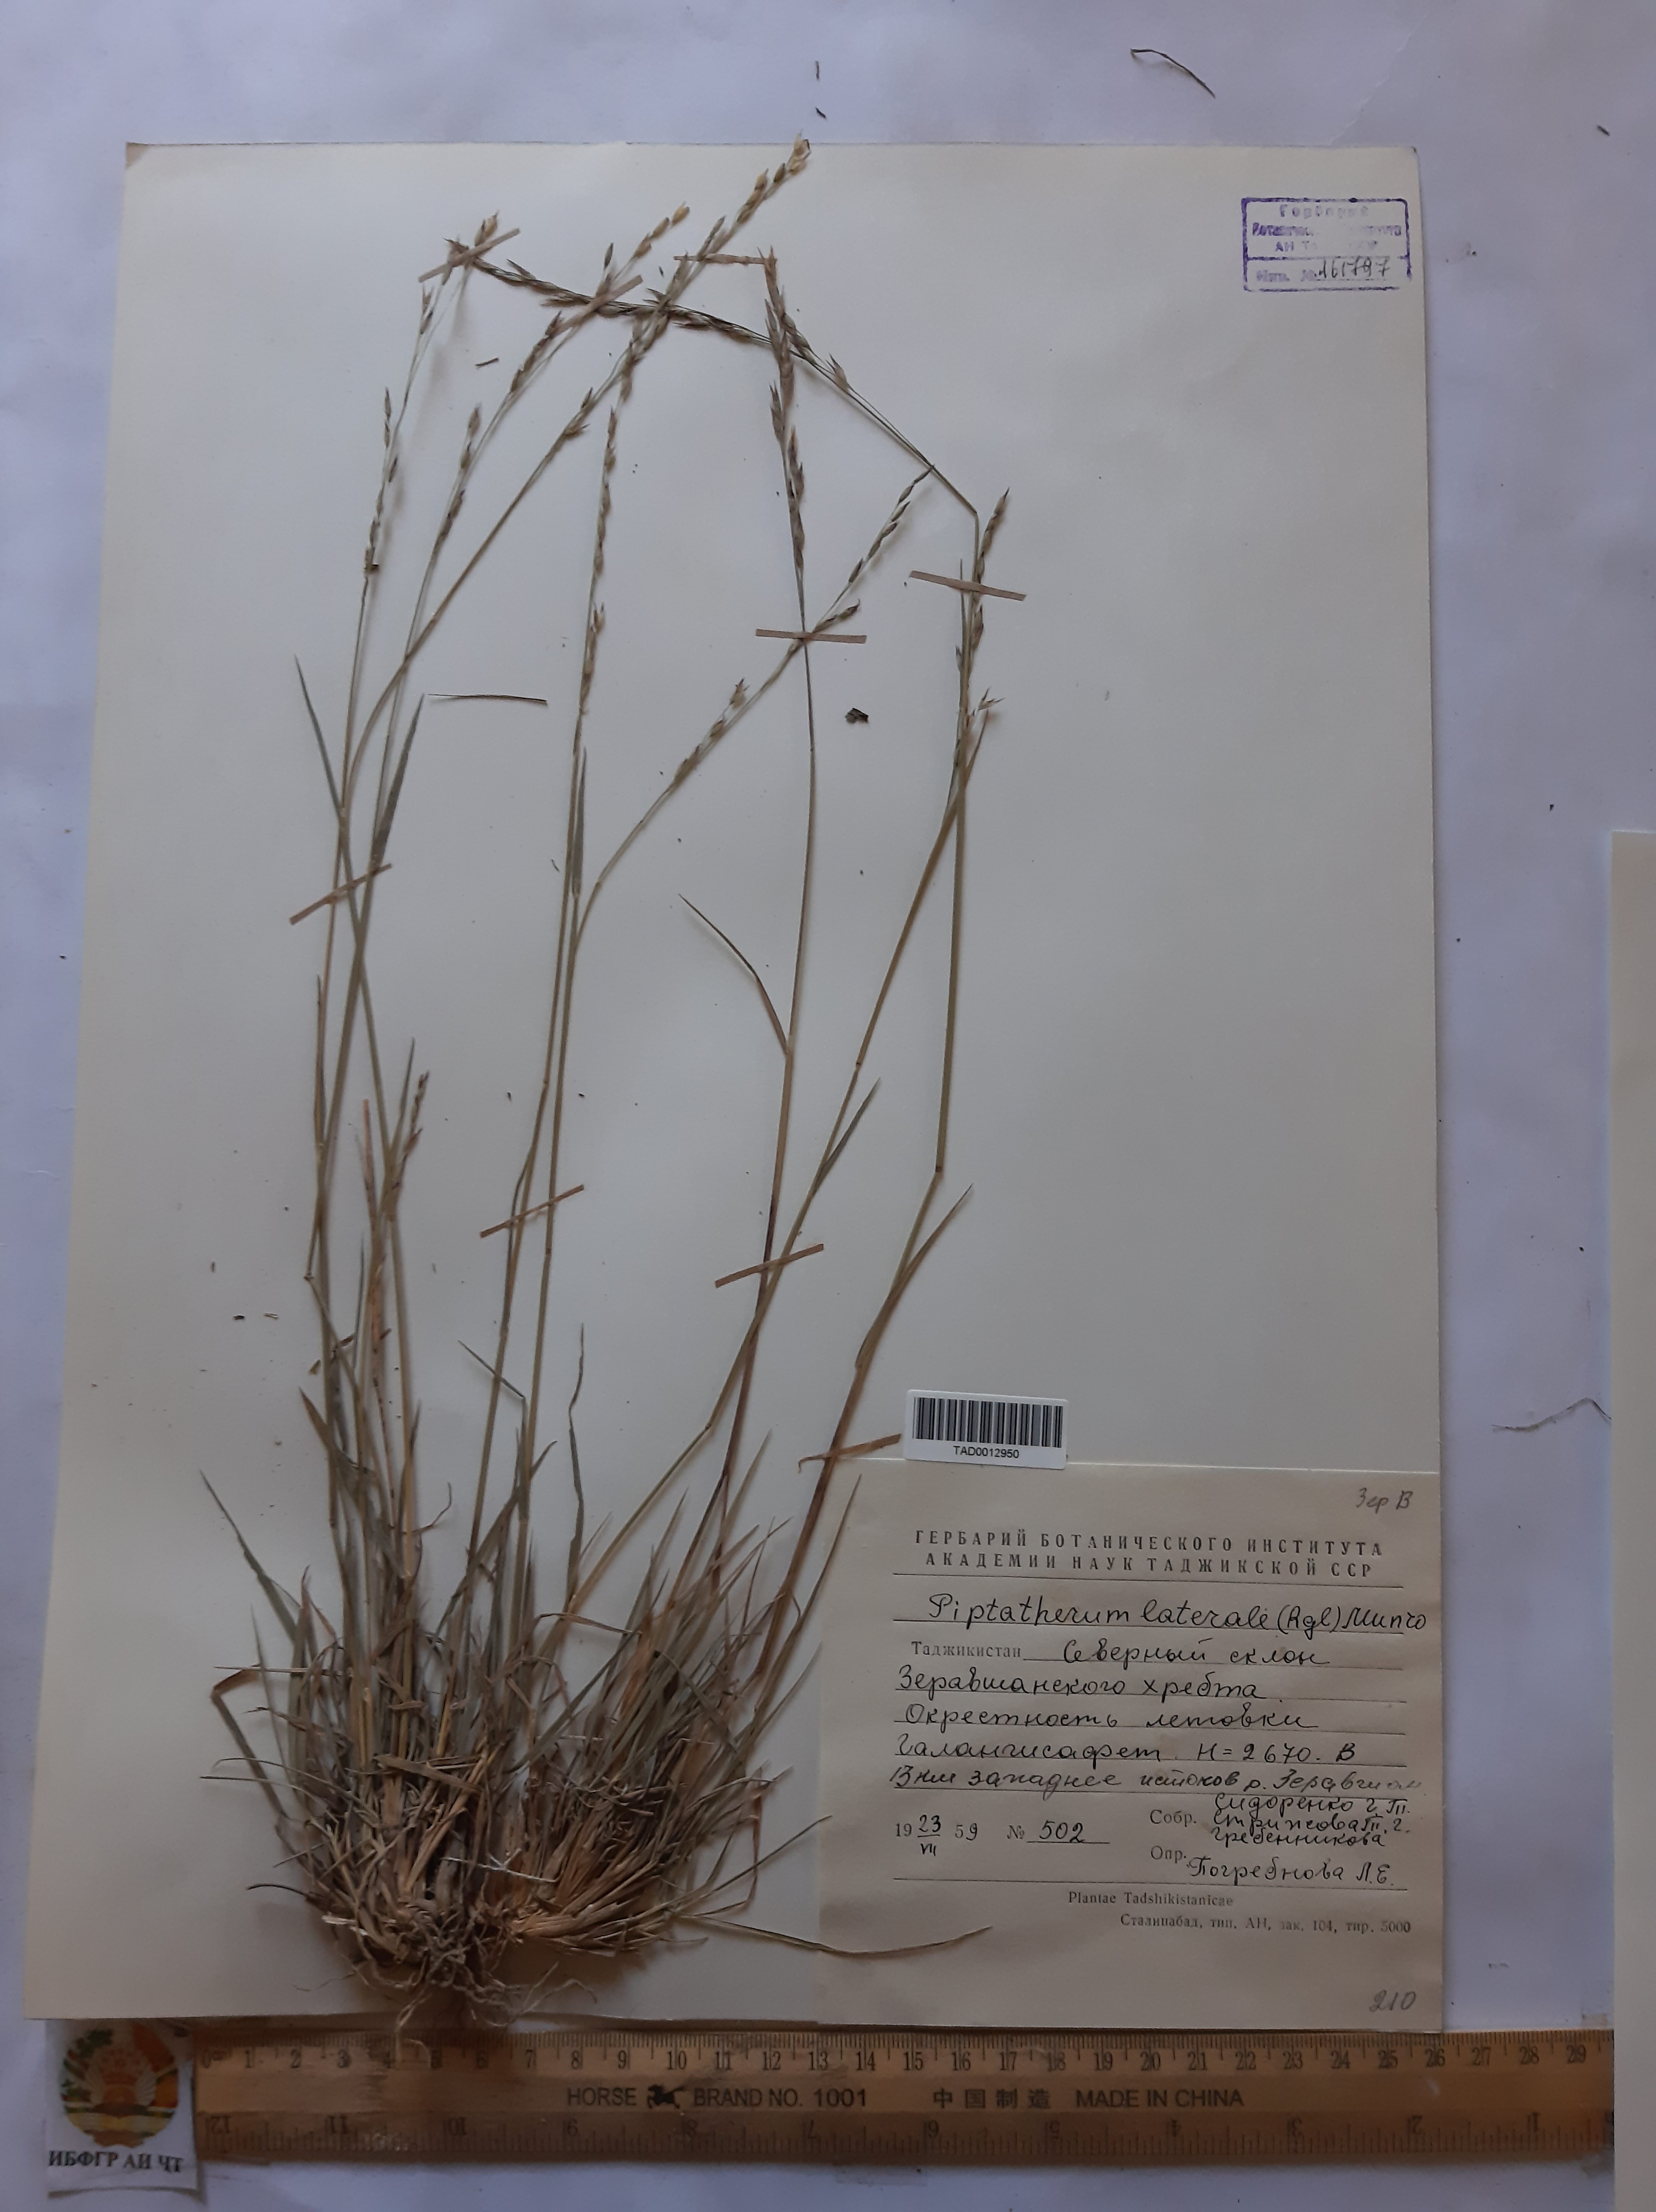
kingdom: Plantae
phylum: Tracheophyta
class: Liliopsida
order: Poales
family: Poaceae
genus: Piptatherum
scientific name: Piptatherum laterale
